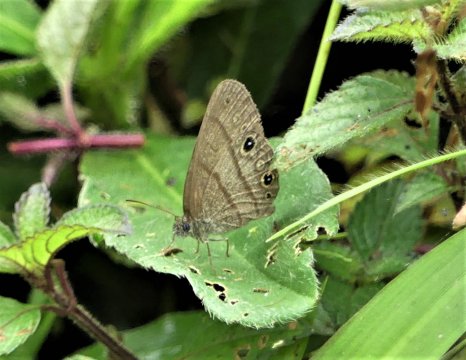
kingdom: Animalia
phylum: Arthropoda
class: Insecta
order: Lepidoptera
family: Nymphalidae
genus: Hermeuptychia
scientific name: Hermeuptychia hermes
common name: Hermes Satyr
